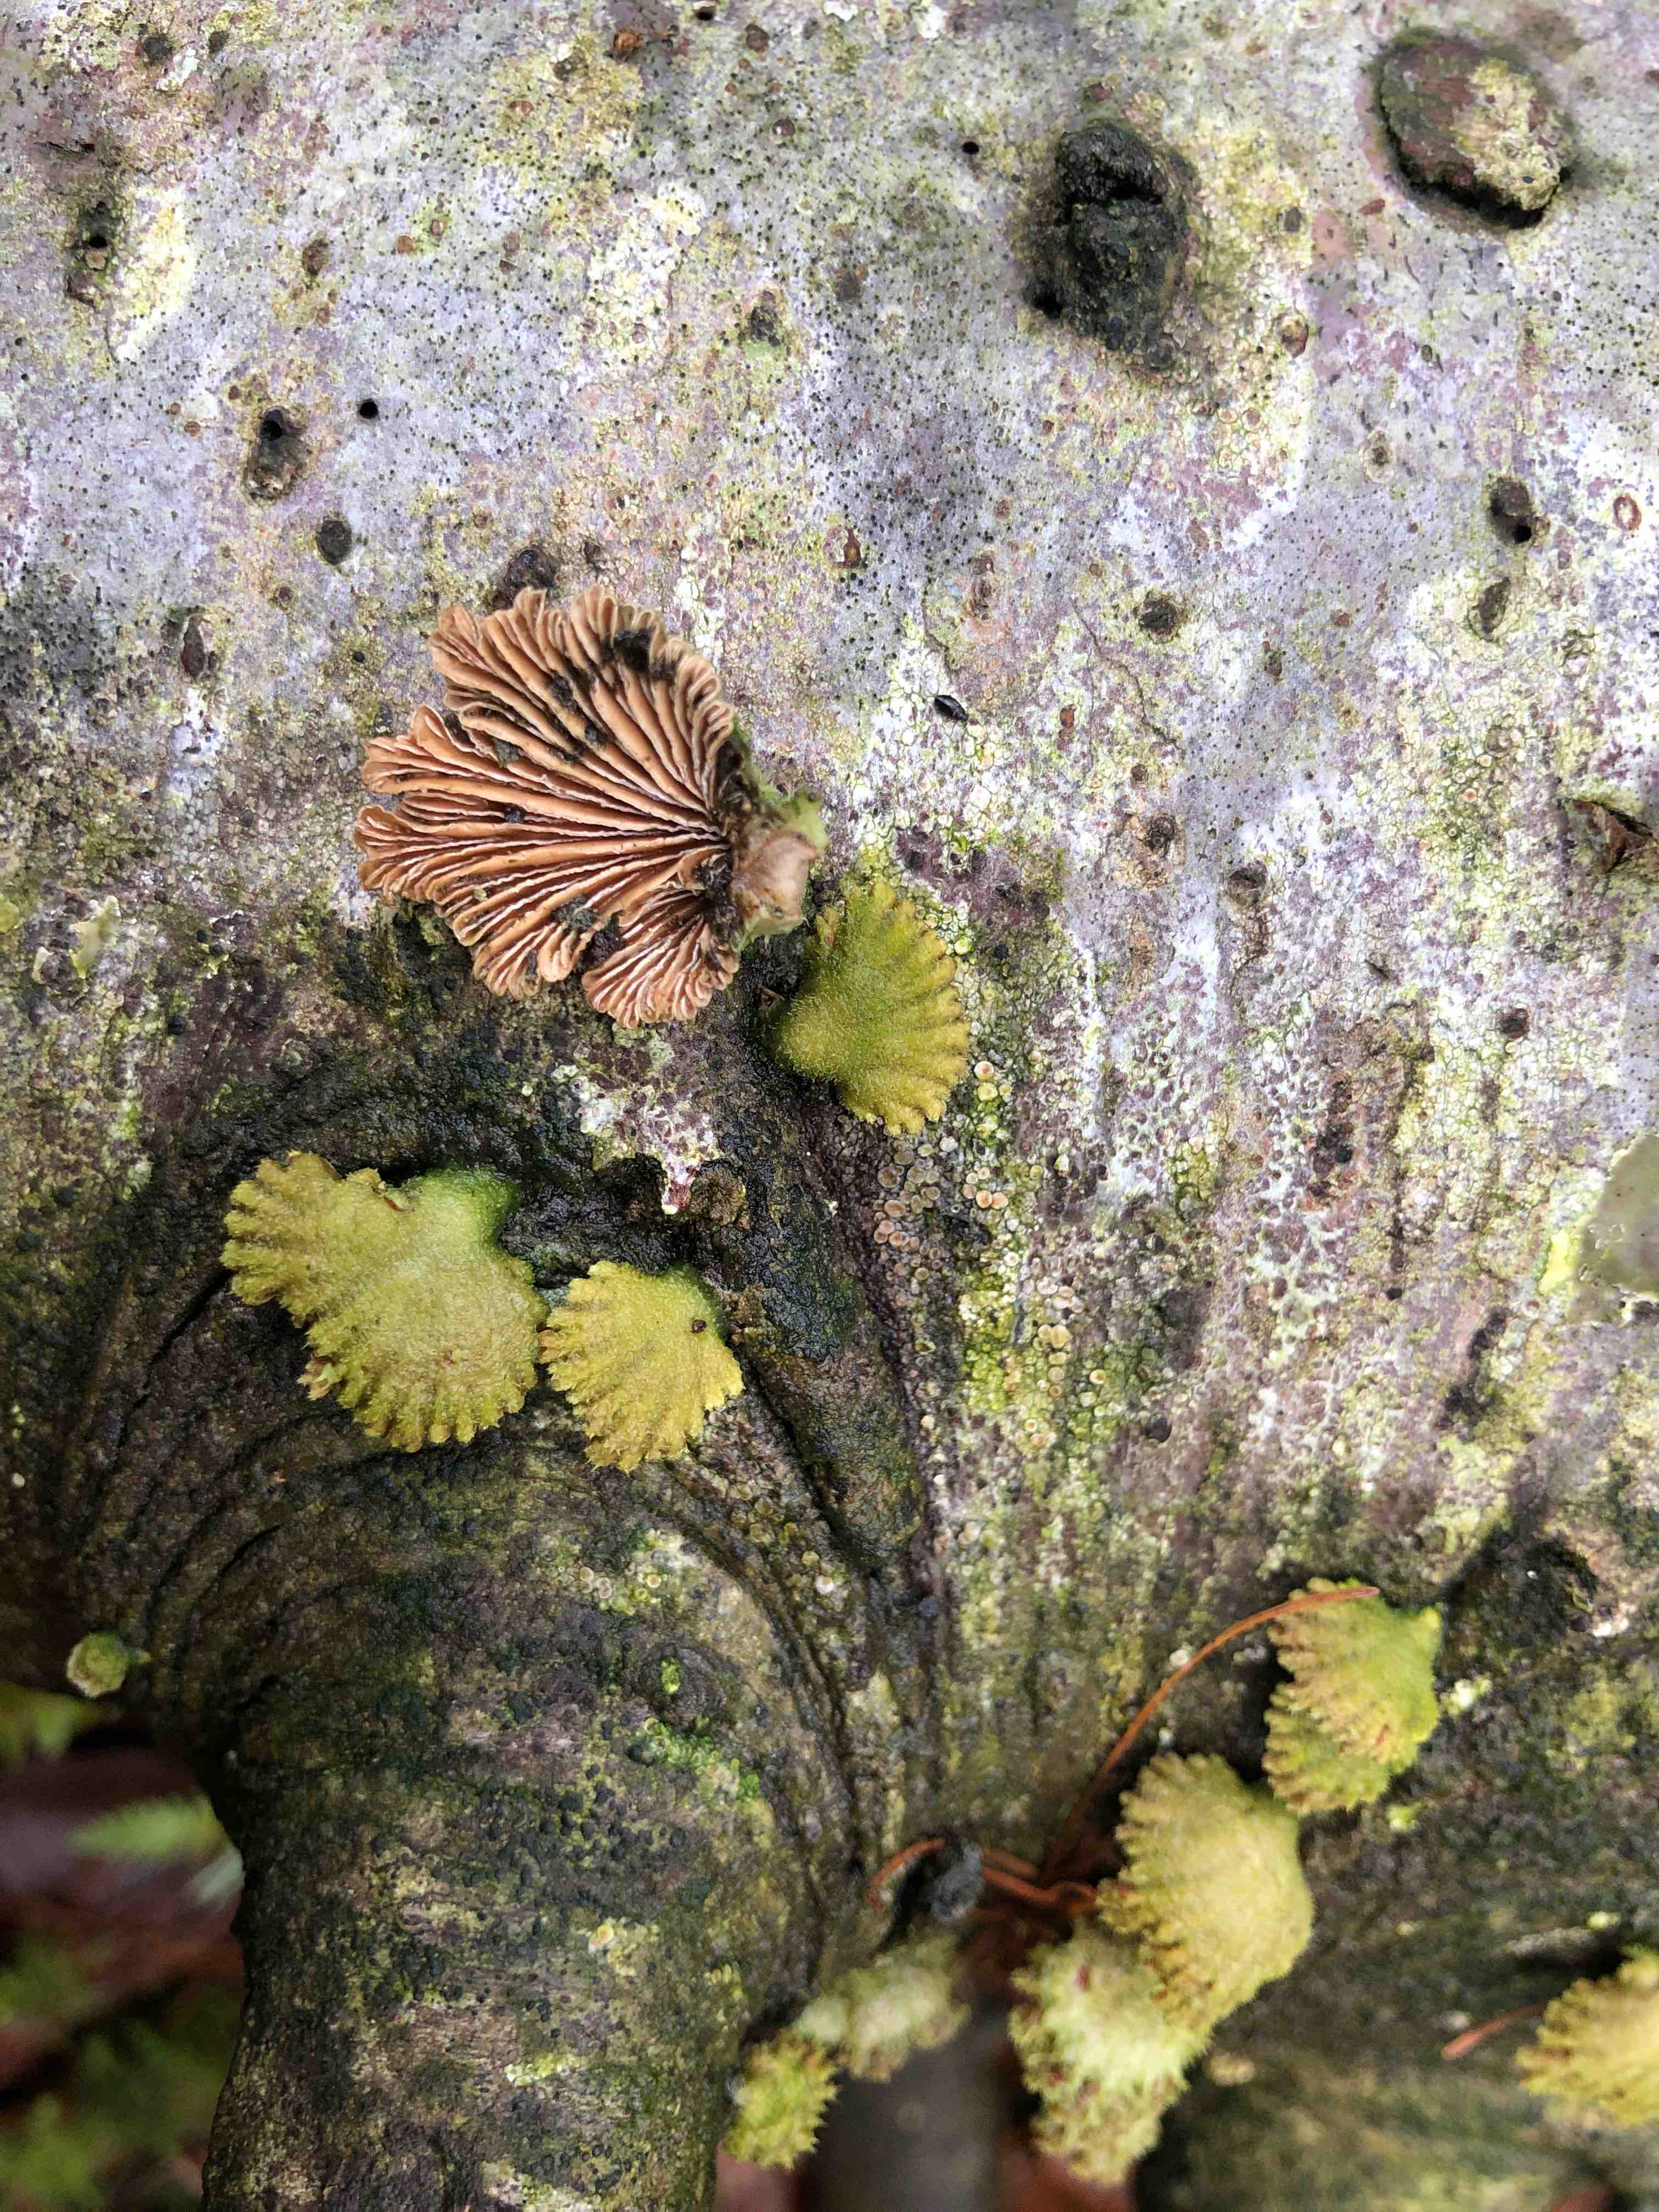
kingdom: Fungi
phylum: Basidiomycota
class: Agaricomycetes
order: Agaricales
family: Schizophyllaceae
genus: Schizophyllum
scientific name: Schizophyllum commune
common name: kløvblad
